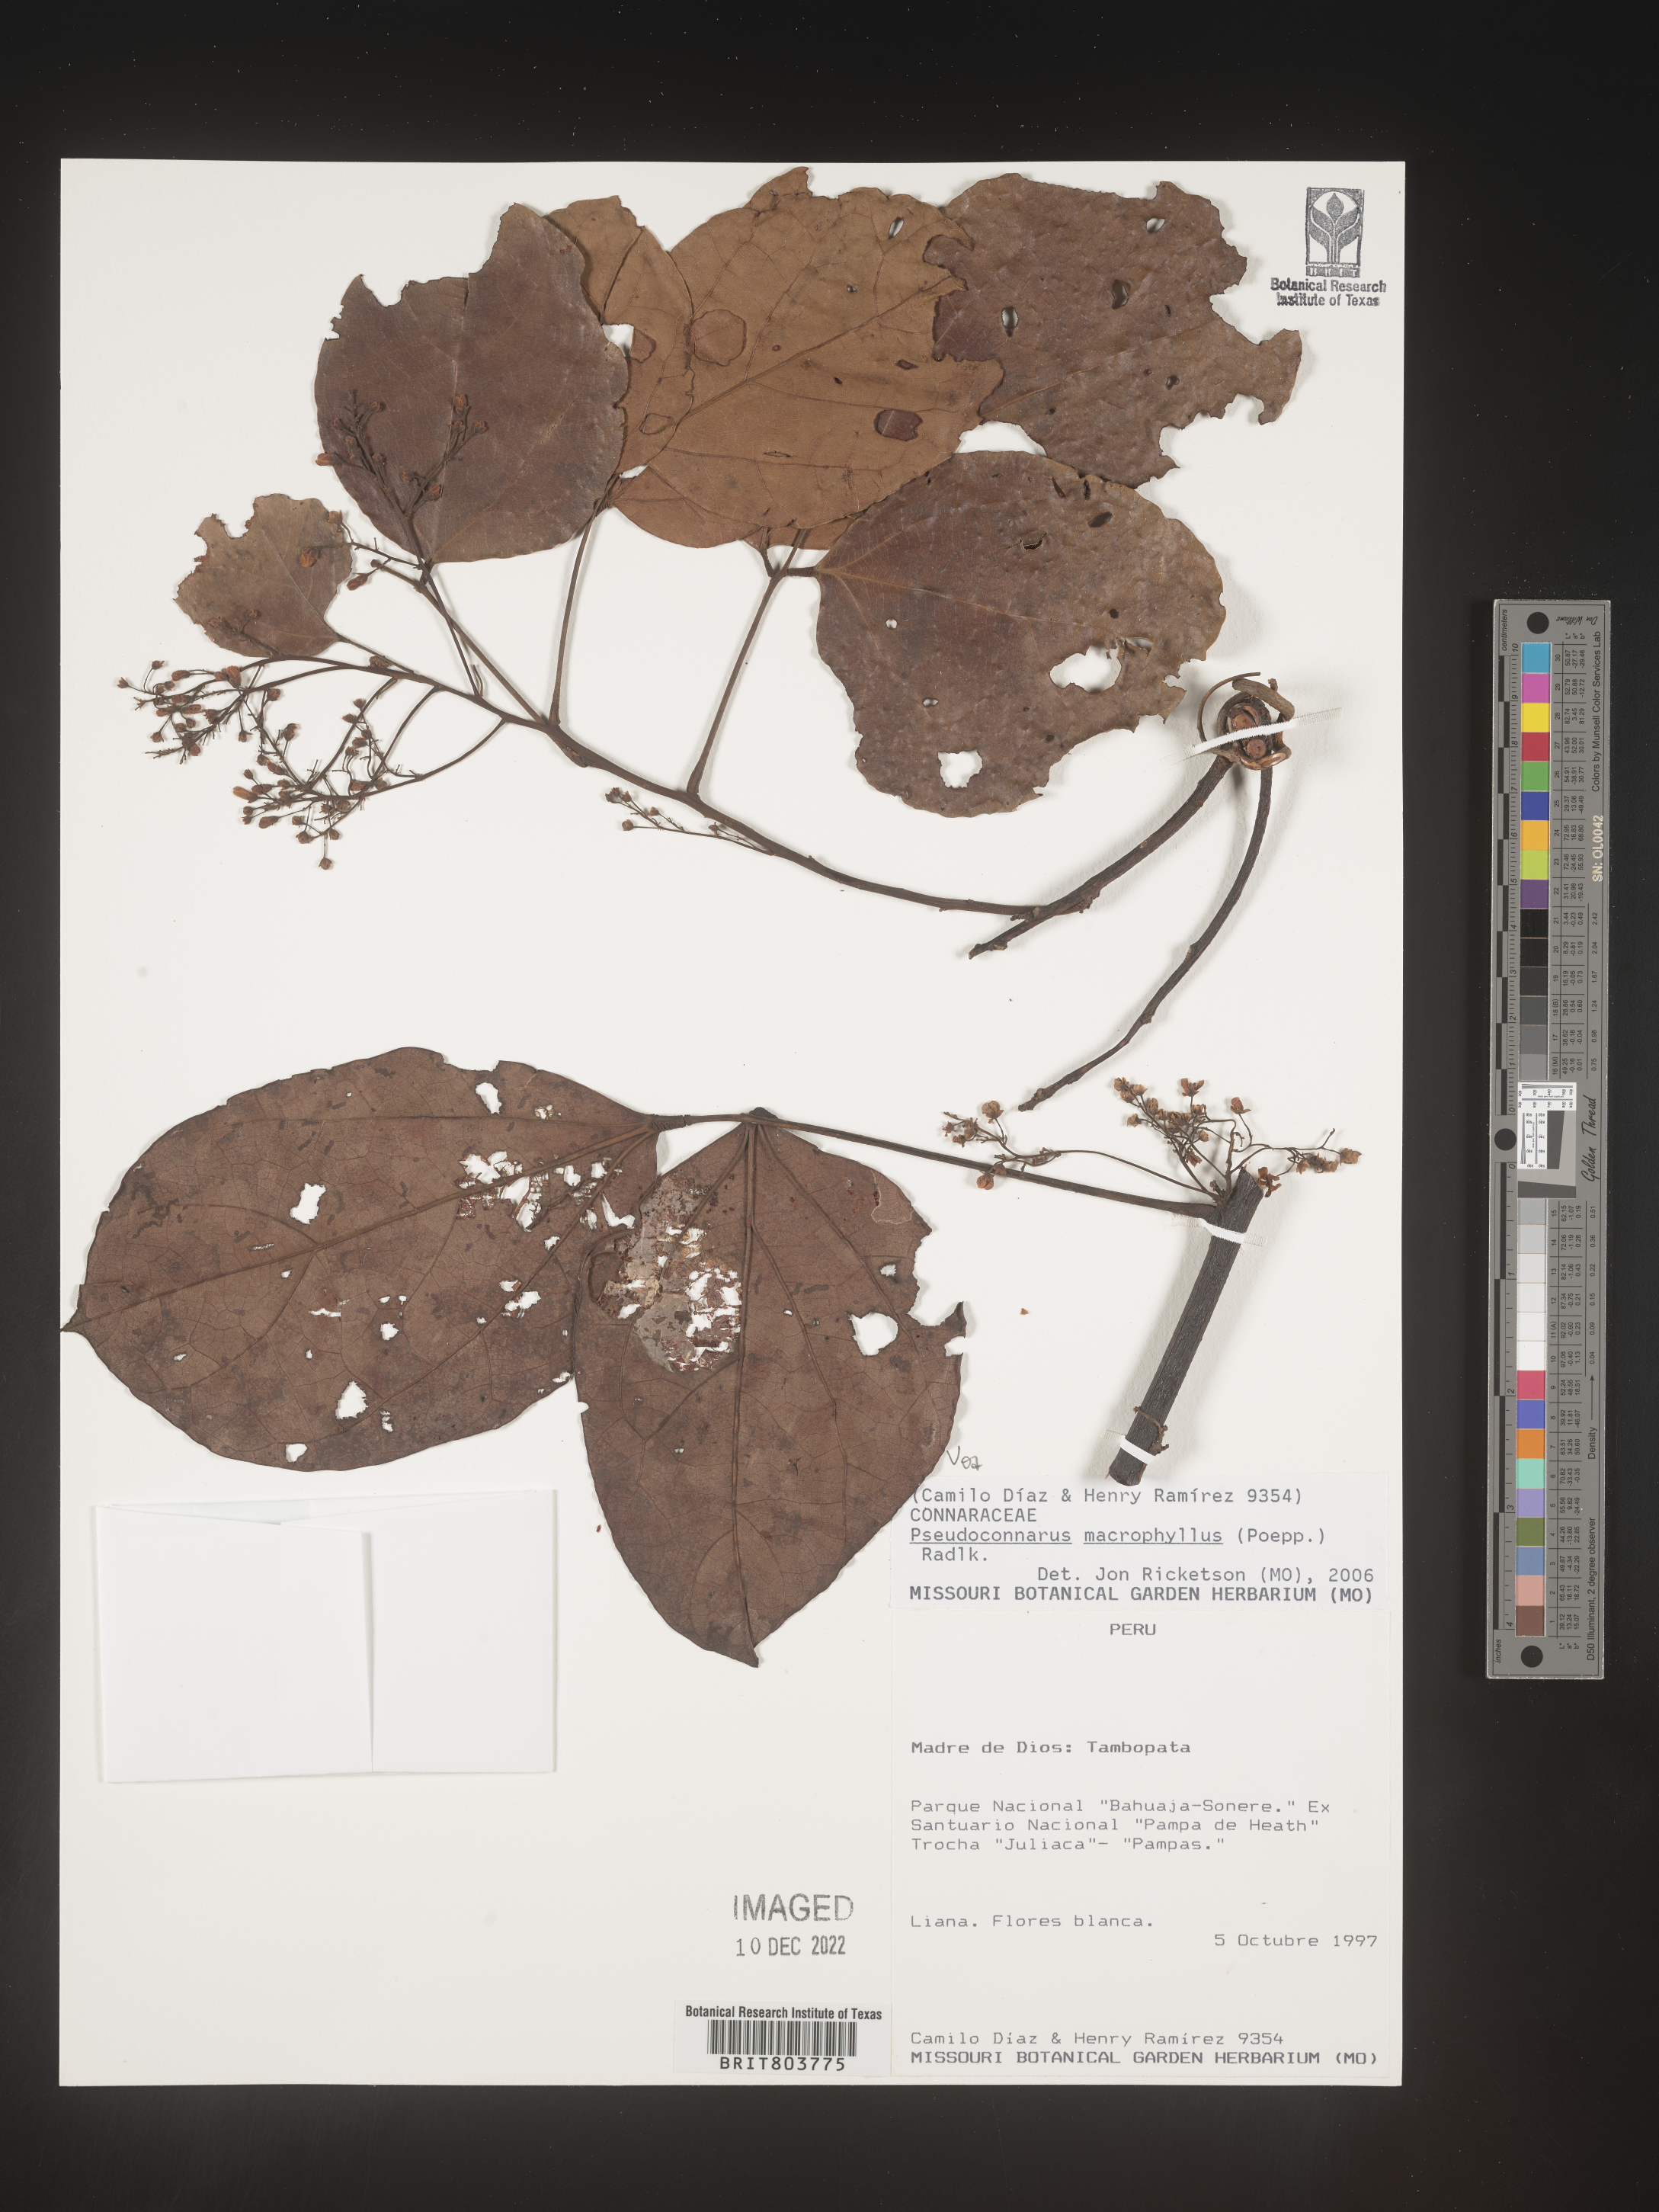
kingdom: Plantae
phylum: Tracheophyta
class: Magnoliopsida
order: Oxalidales
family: Connaraceae
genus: Pseudoconnarus
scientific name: Pseudoconnarus
